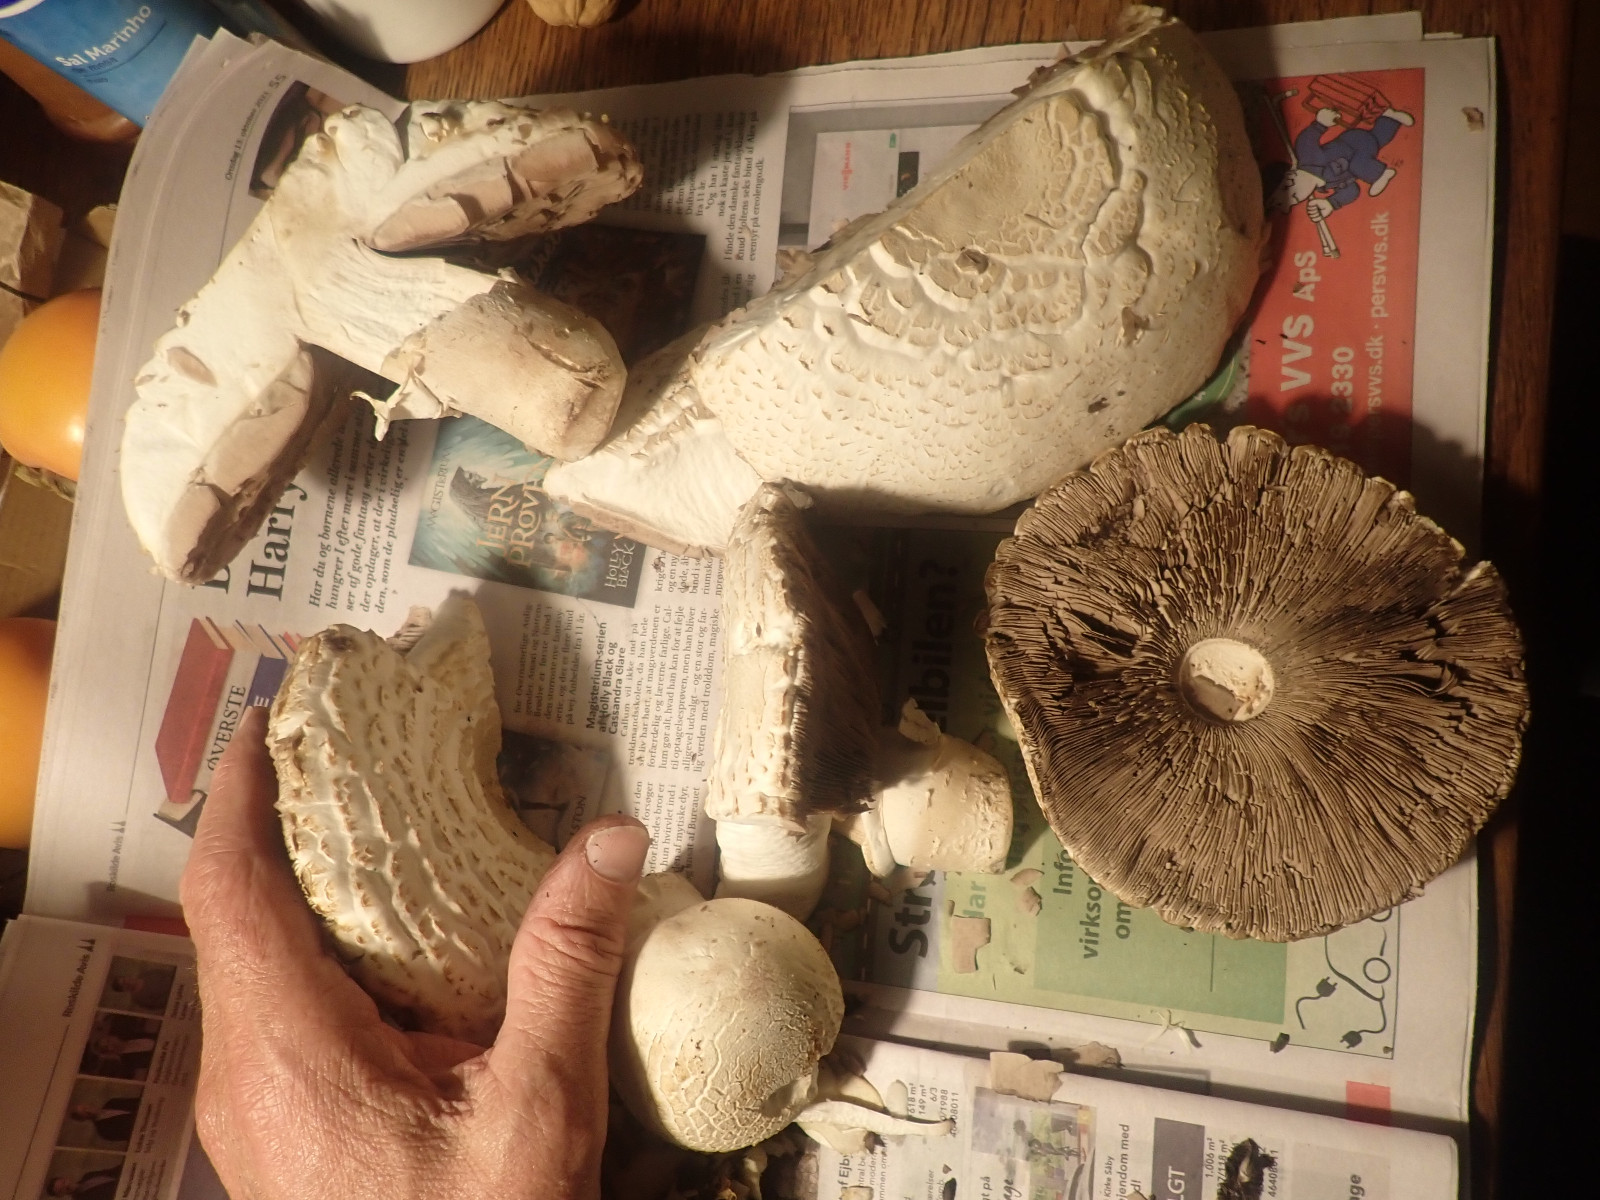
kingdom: Fungi
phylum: Basidiomycota
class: Agaricomycetes
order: Agaricales
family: Agaricaceae
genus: Agaricus
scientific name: Agaricus
